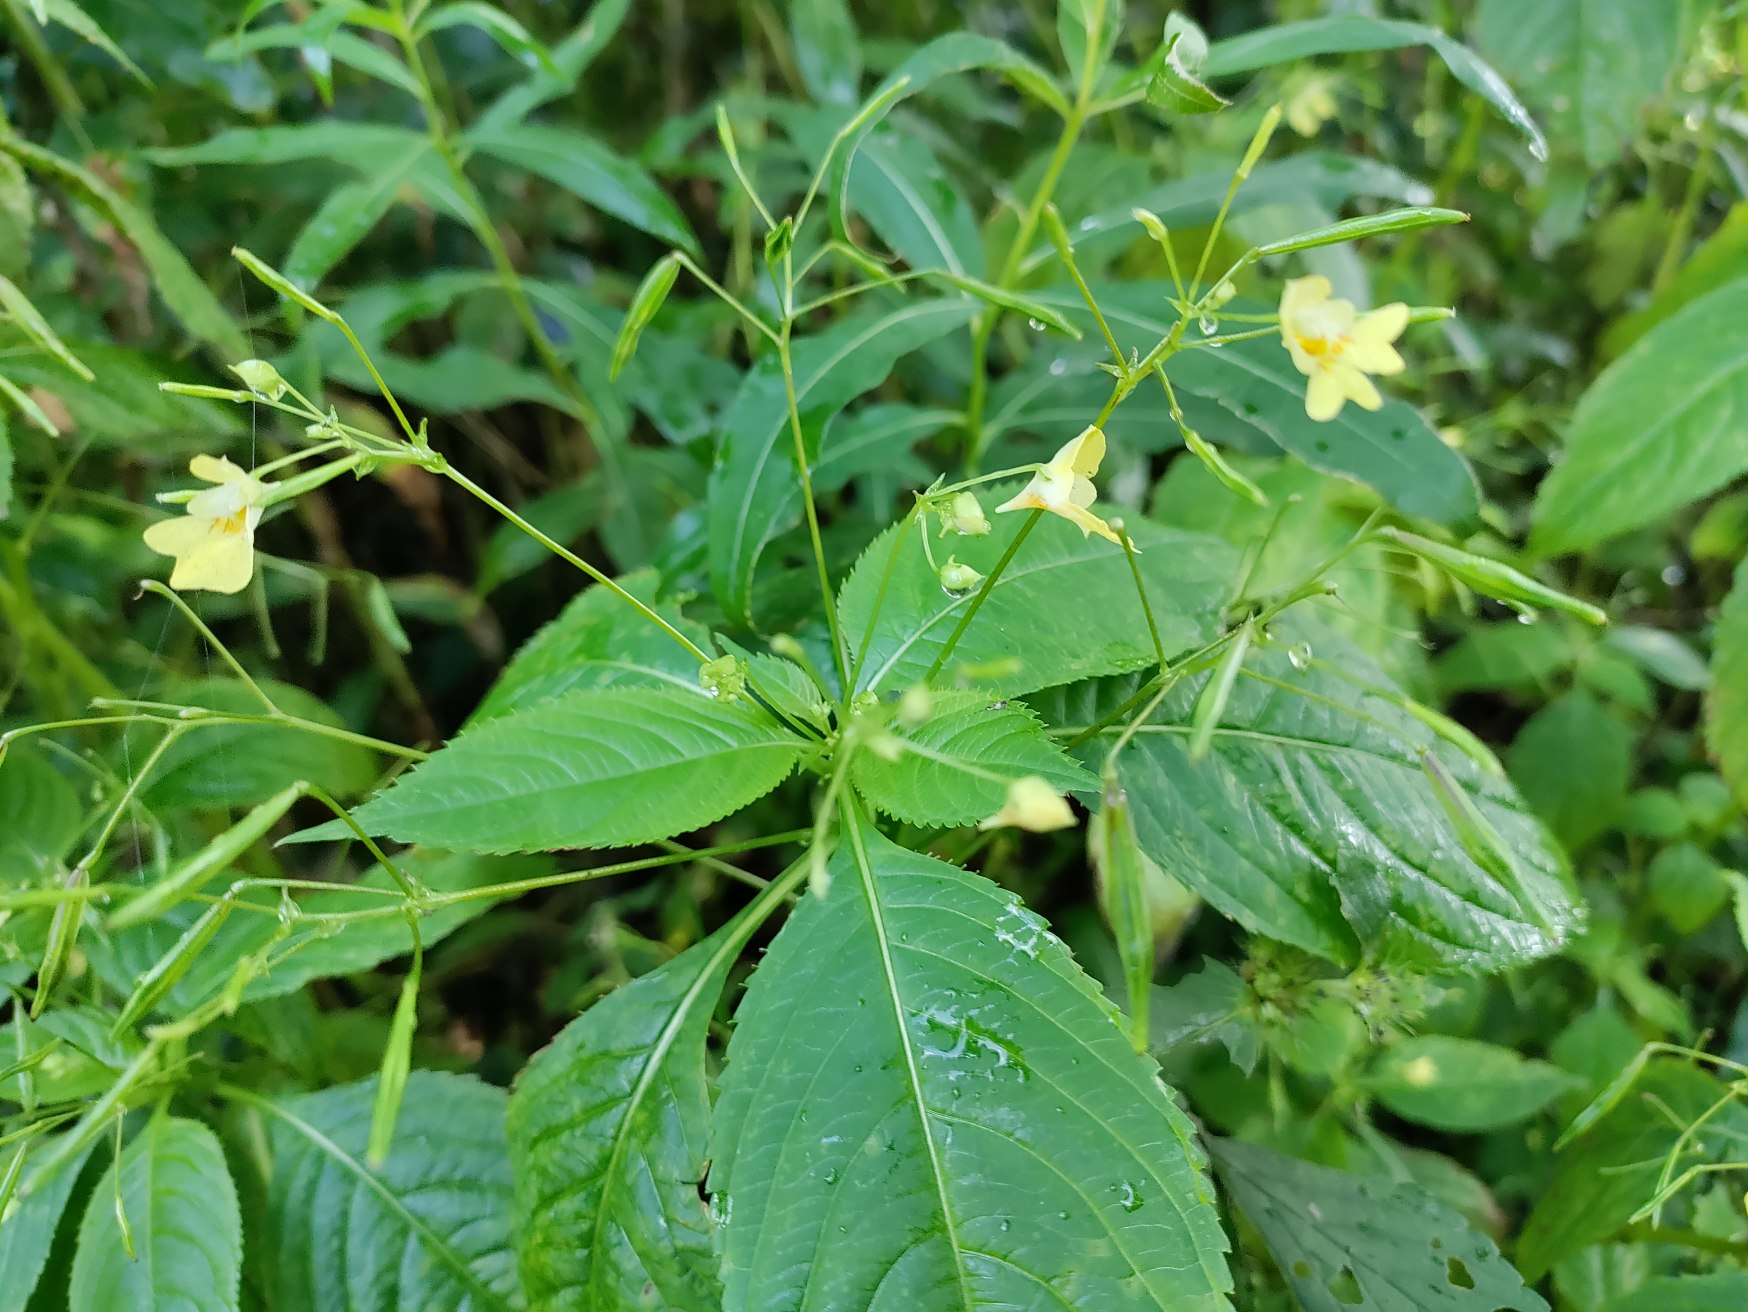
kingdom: Plantae
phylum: Tracheophyta
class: Magnoliopsida
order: Ericales
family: Balsaminaceae
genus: Impatiens
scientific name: Impatiens parviflora
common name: Småblomstret balsamin
